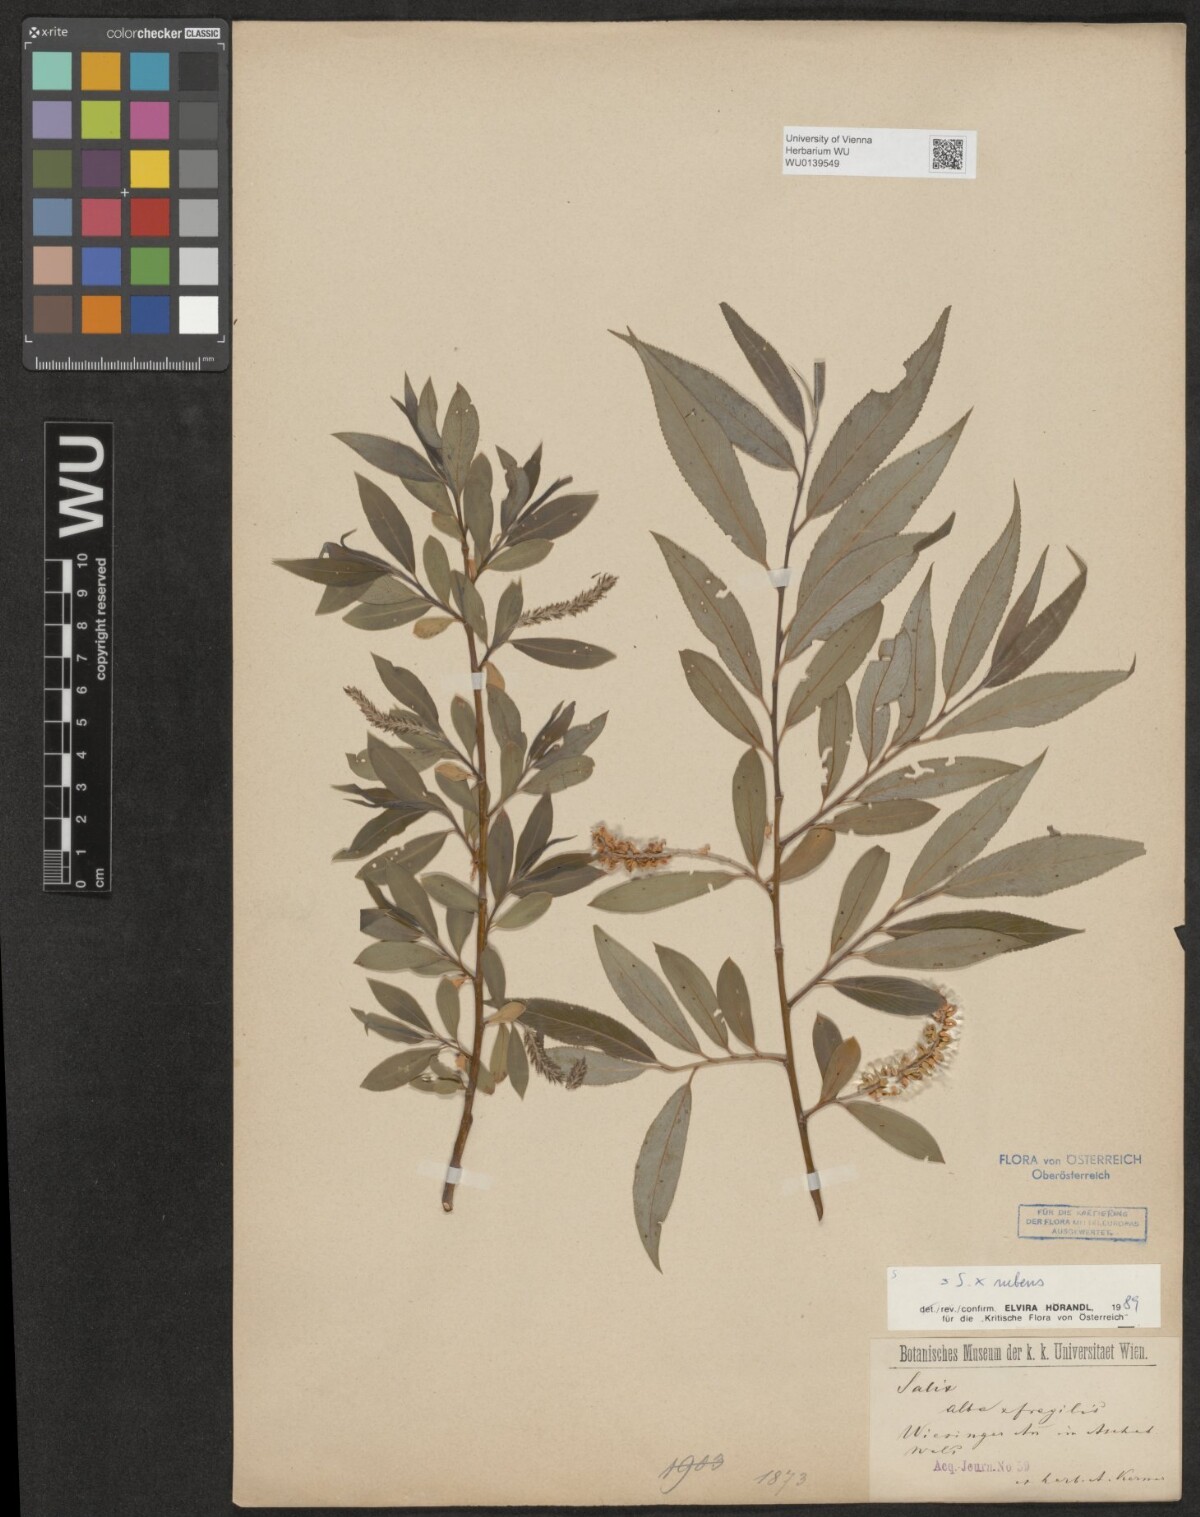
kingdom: Plantae
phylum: Tracheophyta
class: Magnoliopsida
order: Malpighiales
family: Salicaceae
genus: Salix
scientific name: Salix rubens
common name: Hybrid crack willow
